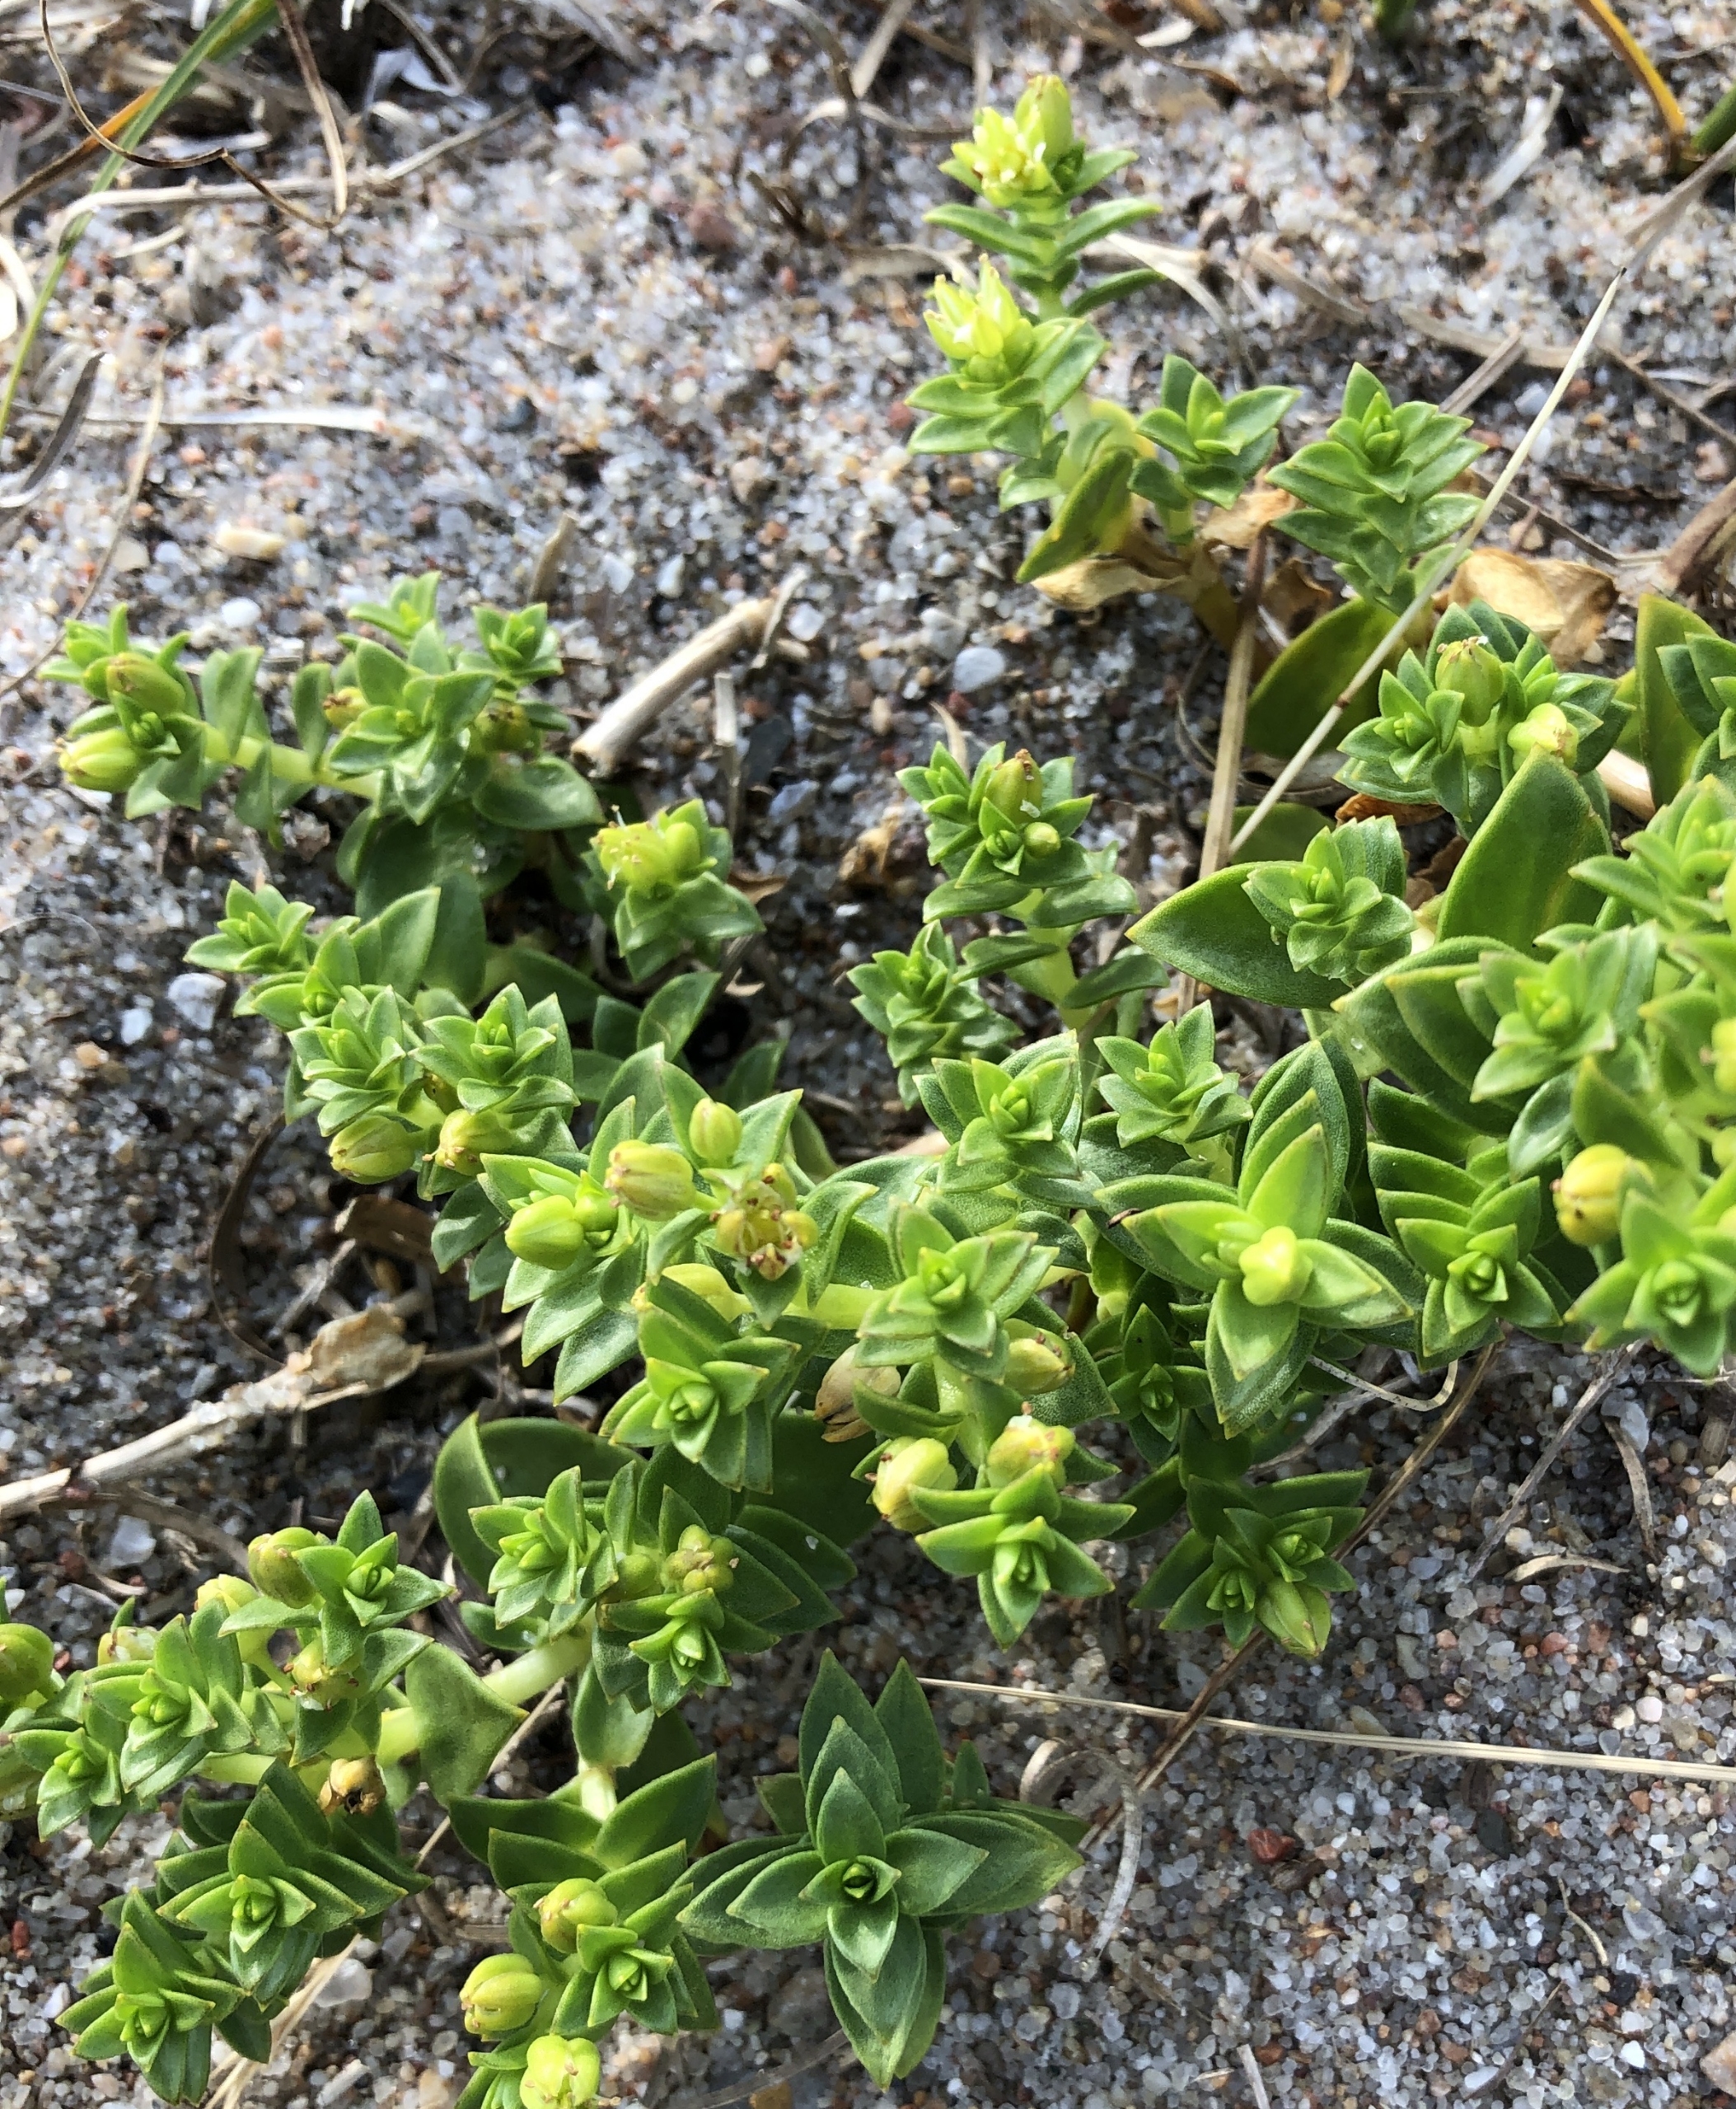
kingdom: Plantae
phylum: Tracheophyta
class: Magnoliopsida
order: Caryophyllales
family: Caryophyllaceae
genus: Honckenya
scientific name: Honckenya peploides
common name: Strandarve
